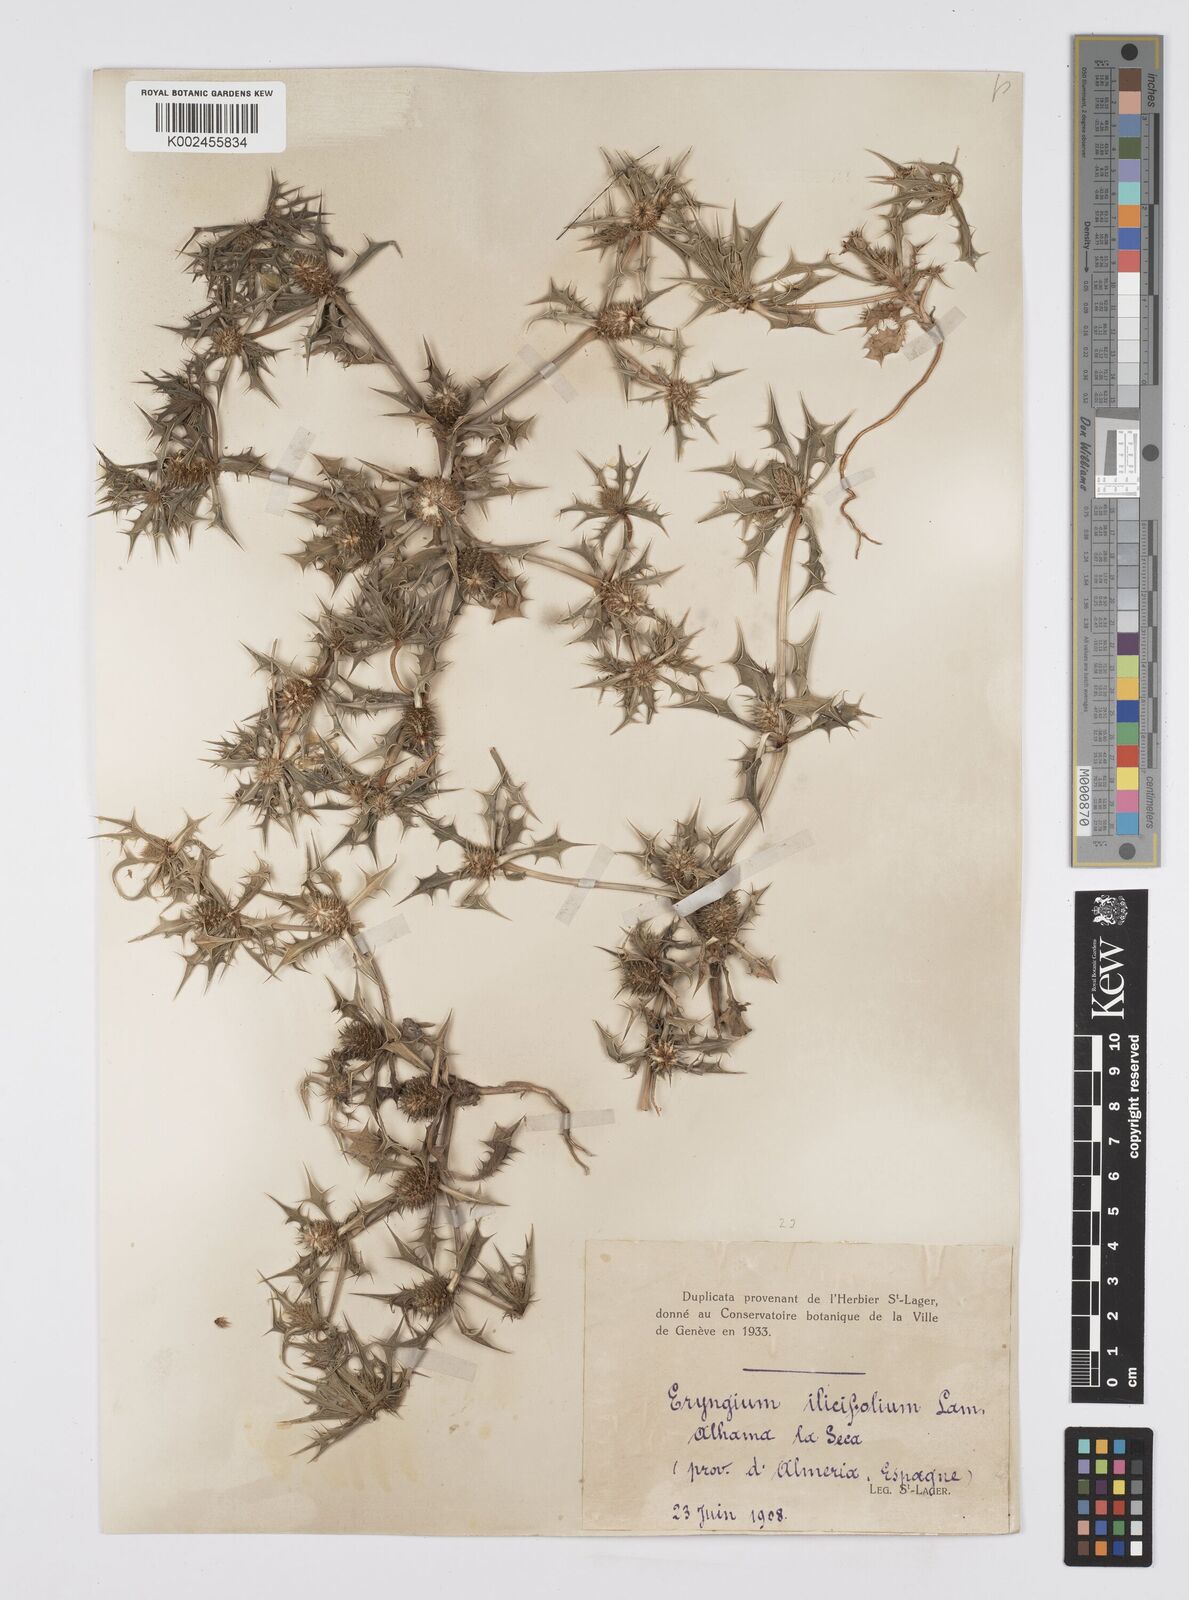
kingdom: Plantae
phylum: Tracheophyta
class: Magnoliopsida
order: Apiales
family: Apiaceae
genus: Eryngium
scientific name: Eryngium
